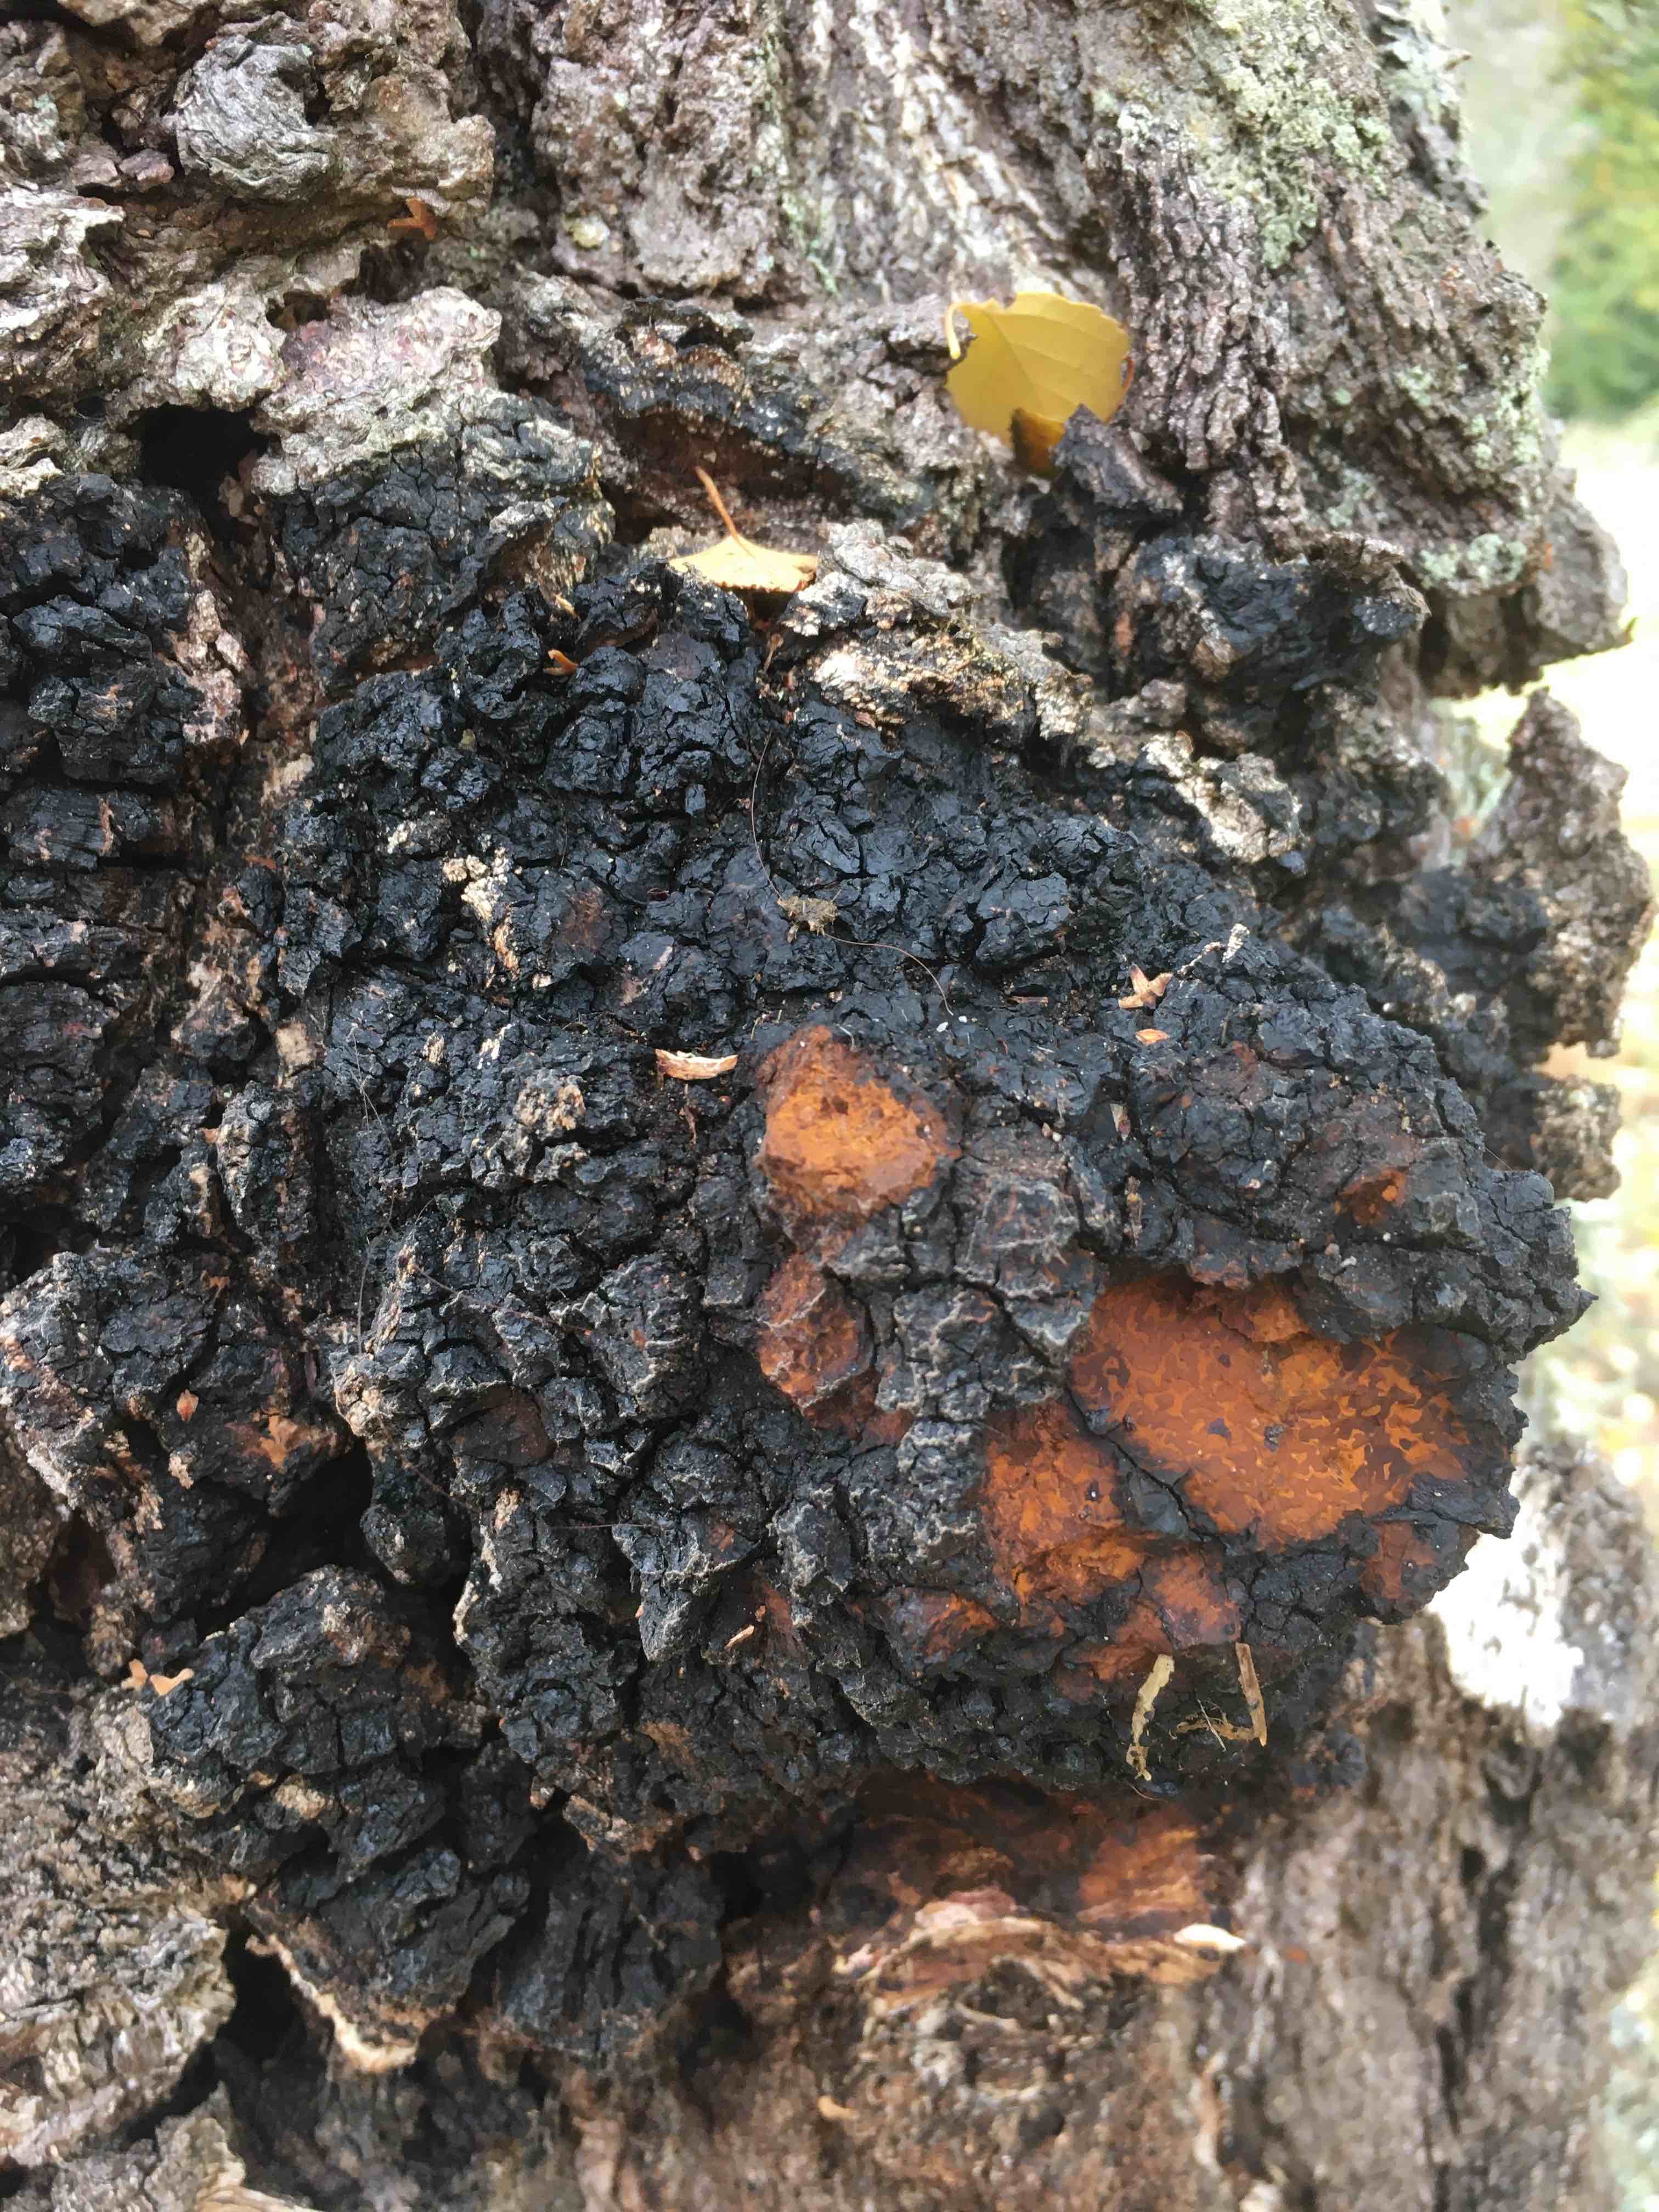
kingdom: Fungi
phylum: Basidiomycota
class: Agaricomycetes
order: Hymenochaetales
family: Hymenochaetaceae
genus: Inonotus
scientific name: Inonotus obliquus
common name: birke-spejlporesvamp
